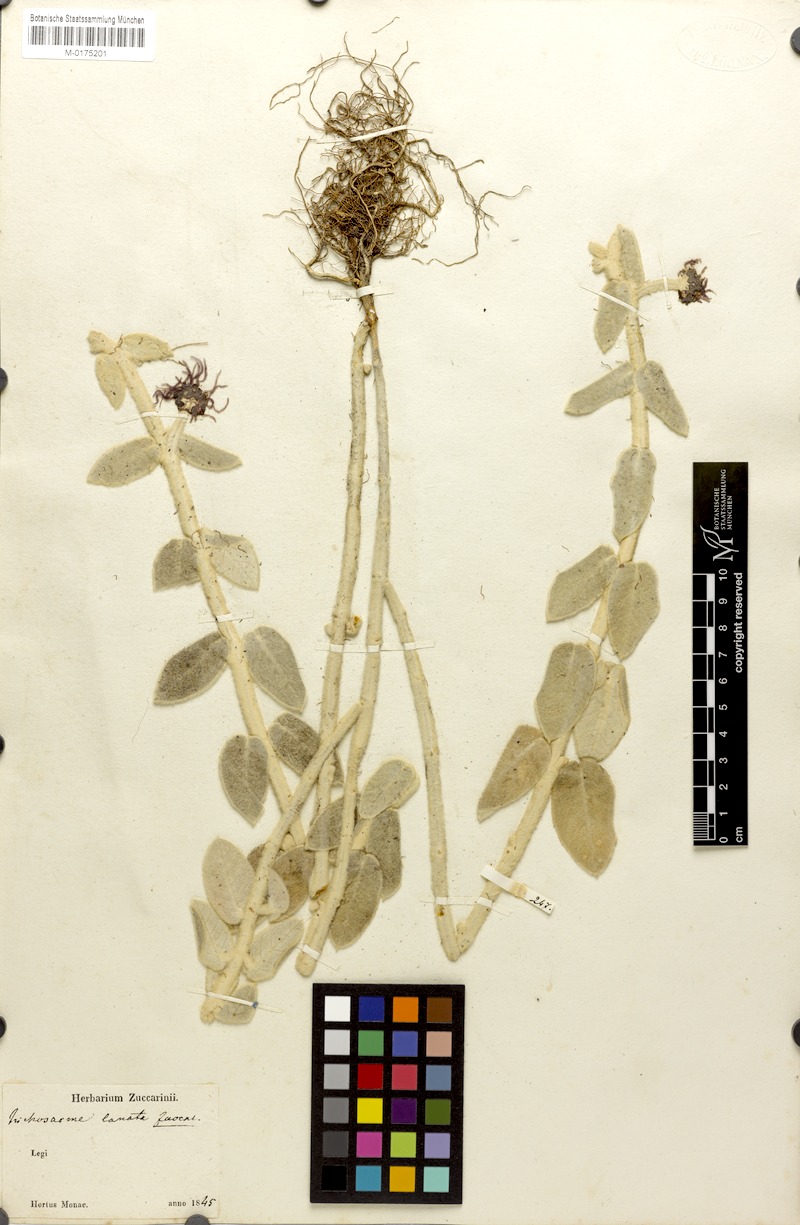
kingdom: Plantae
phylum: Tracheophyta
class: Magnoliopsida
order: Gentianales
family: Apocynaceae
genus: Trichosacme
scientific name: Trichosacme lanata
